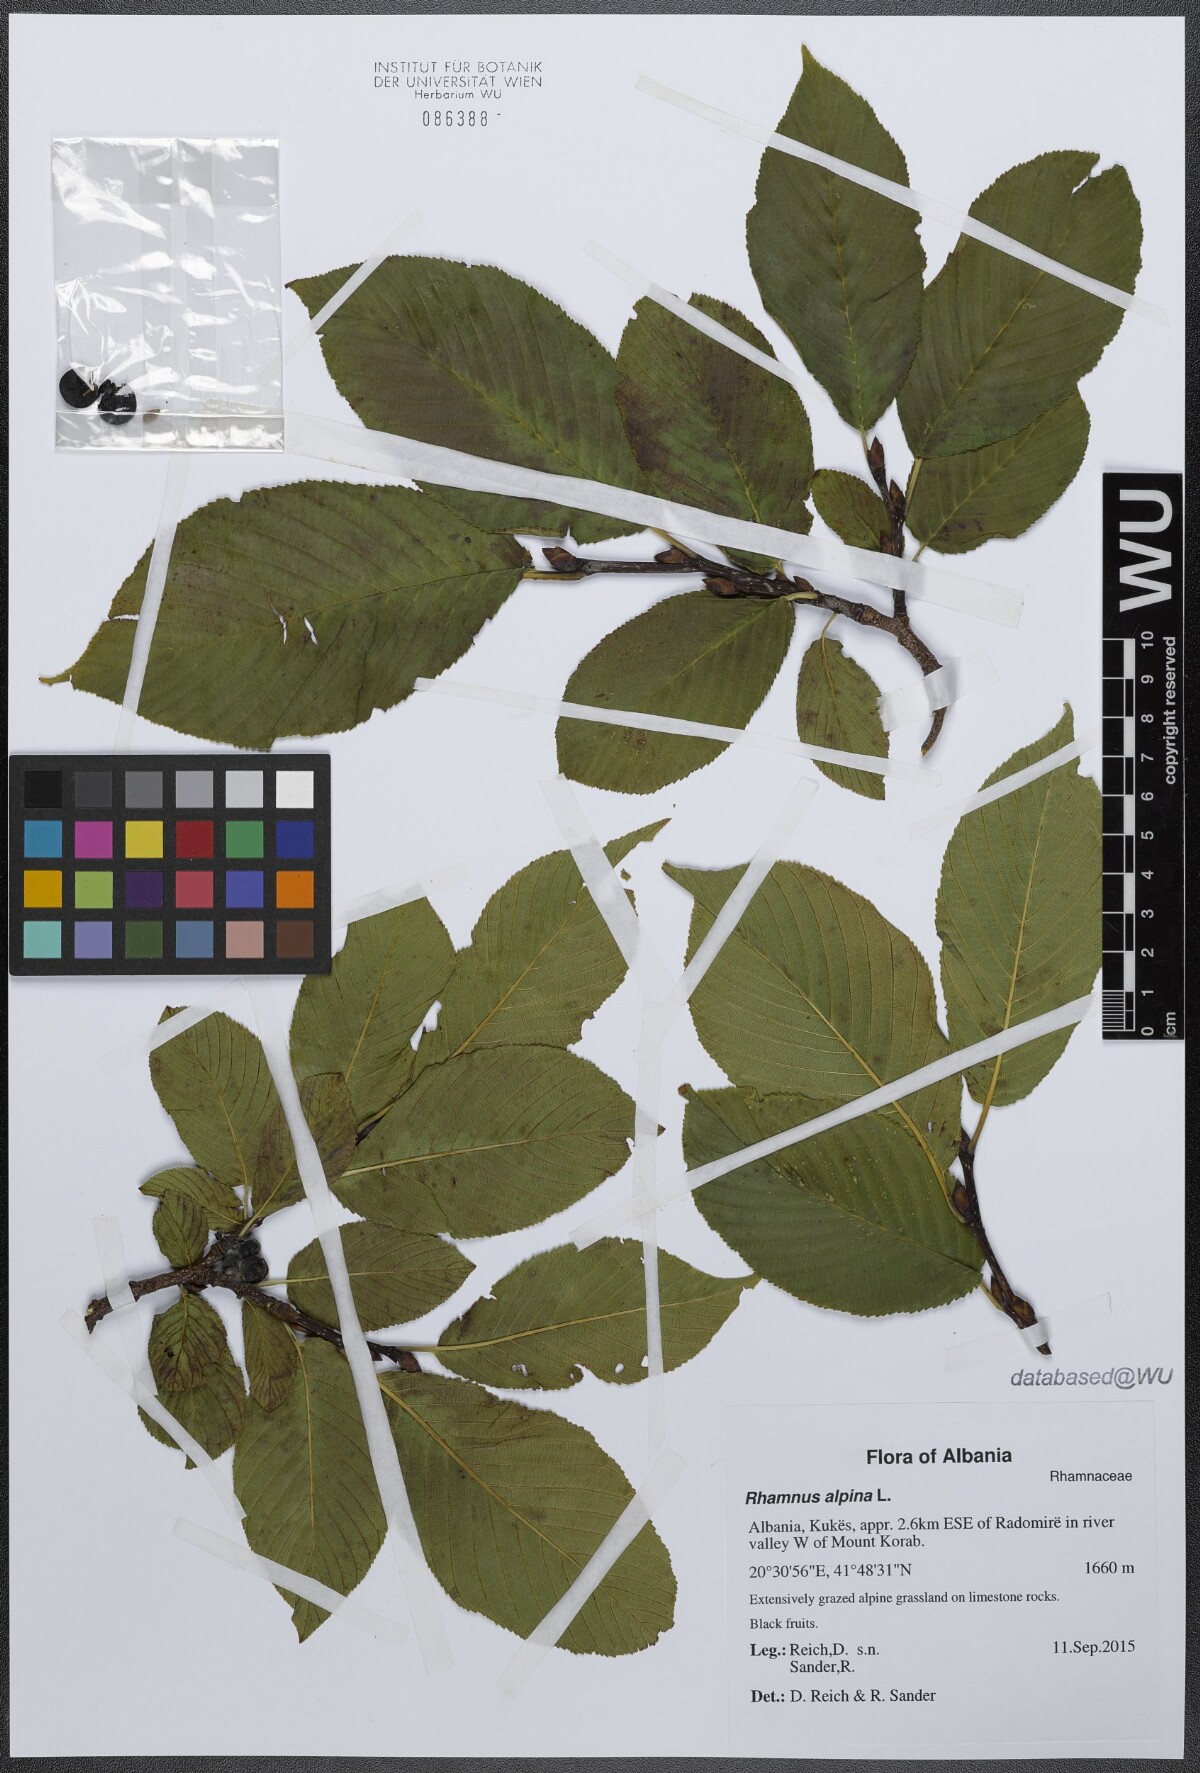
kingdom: Plantae
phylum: Tracheophyta
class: Magnoliopsida
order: Rosales
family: Rhamnaceae
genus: Atadinus
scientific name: Atadinus alpinus
